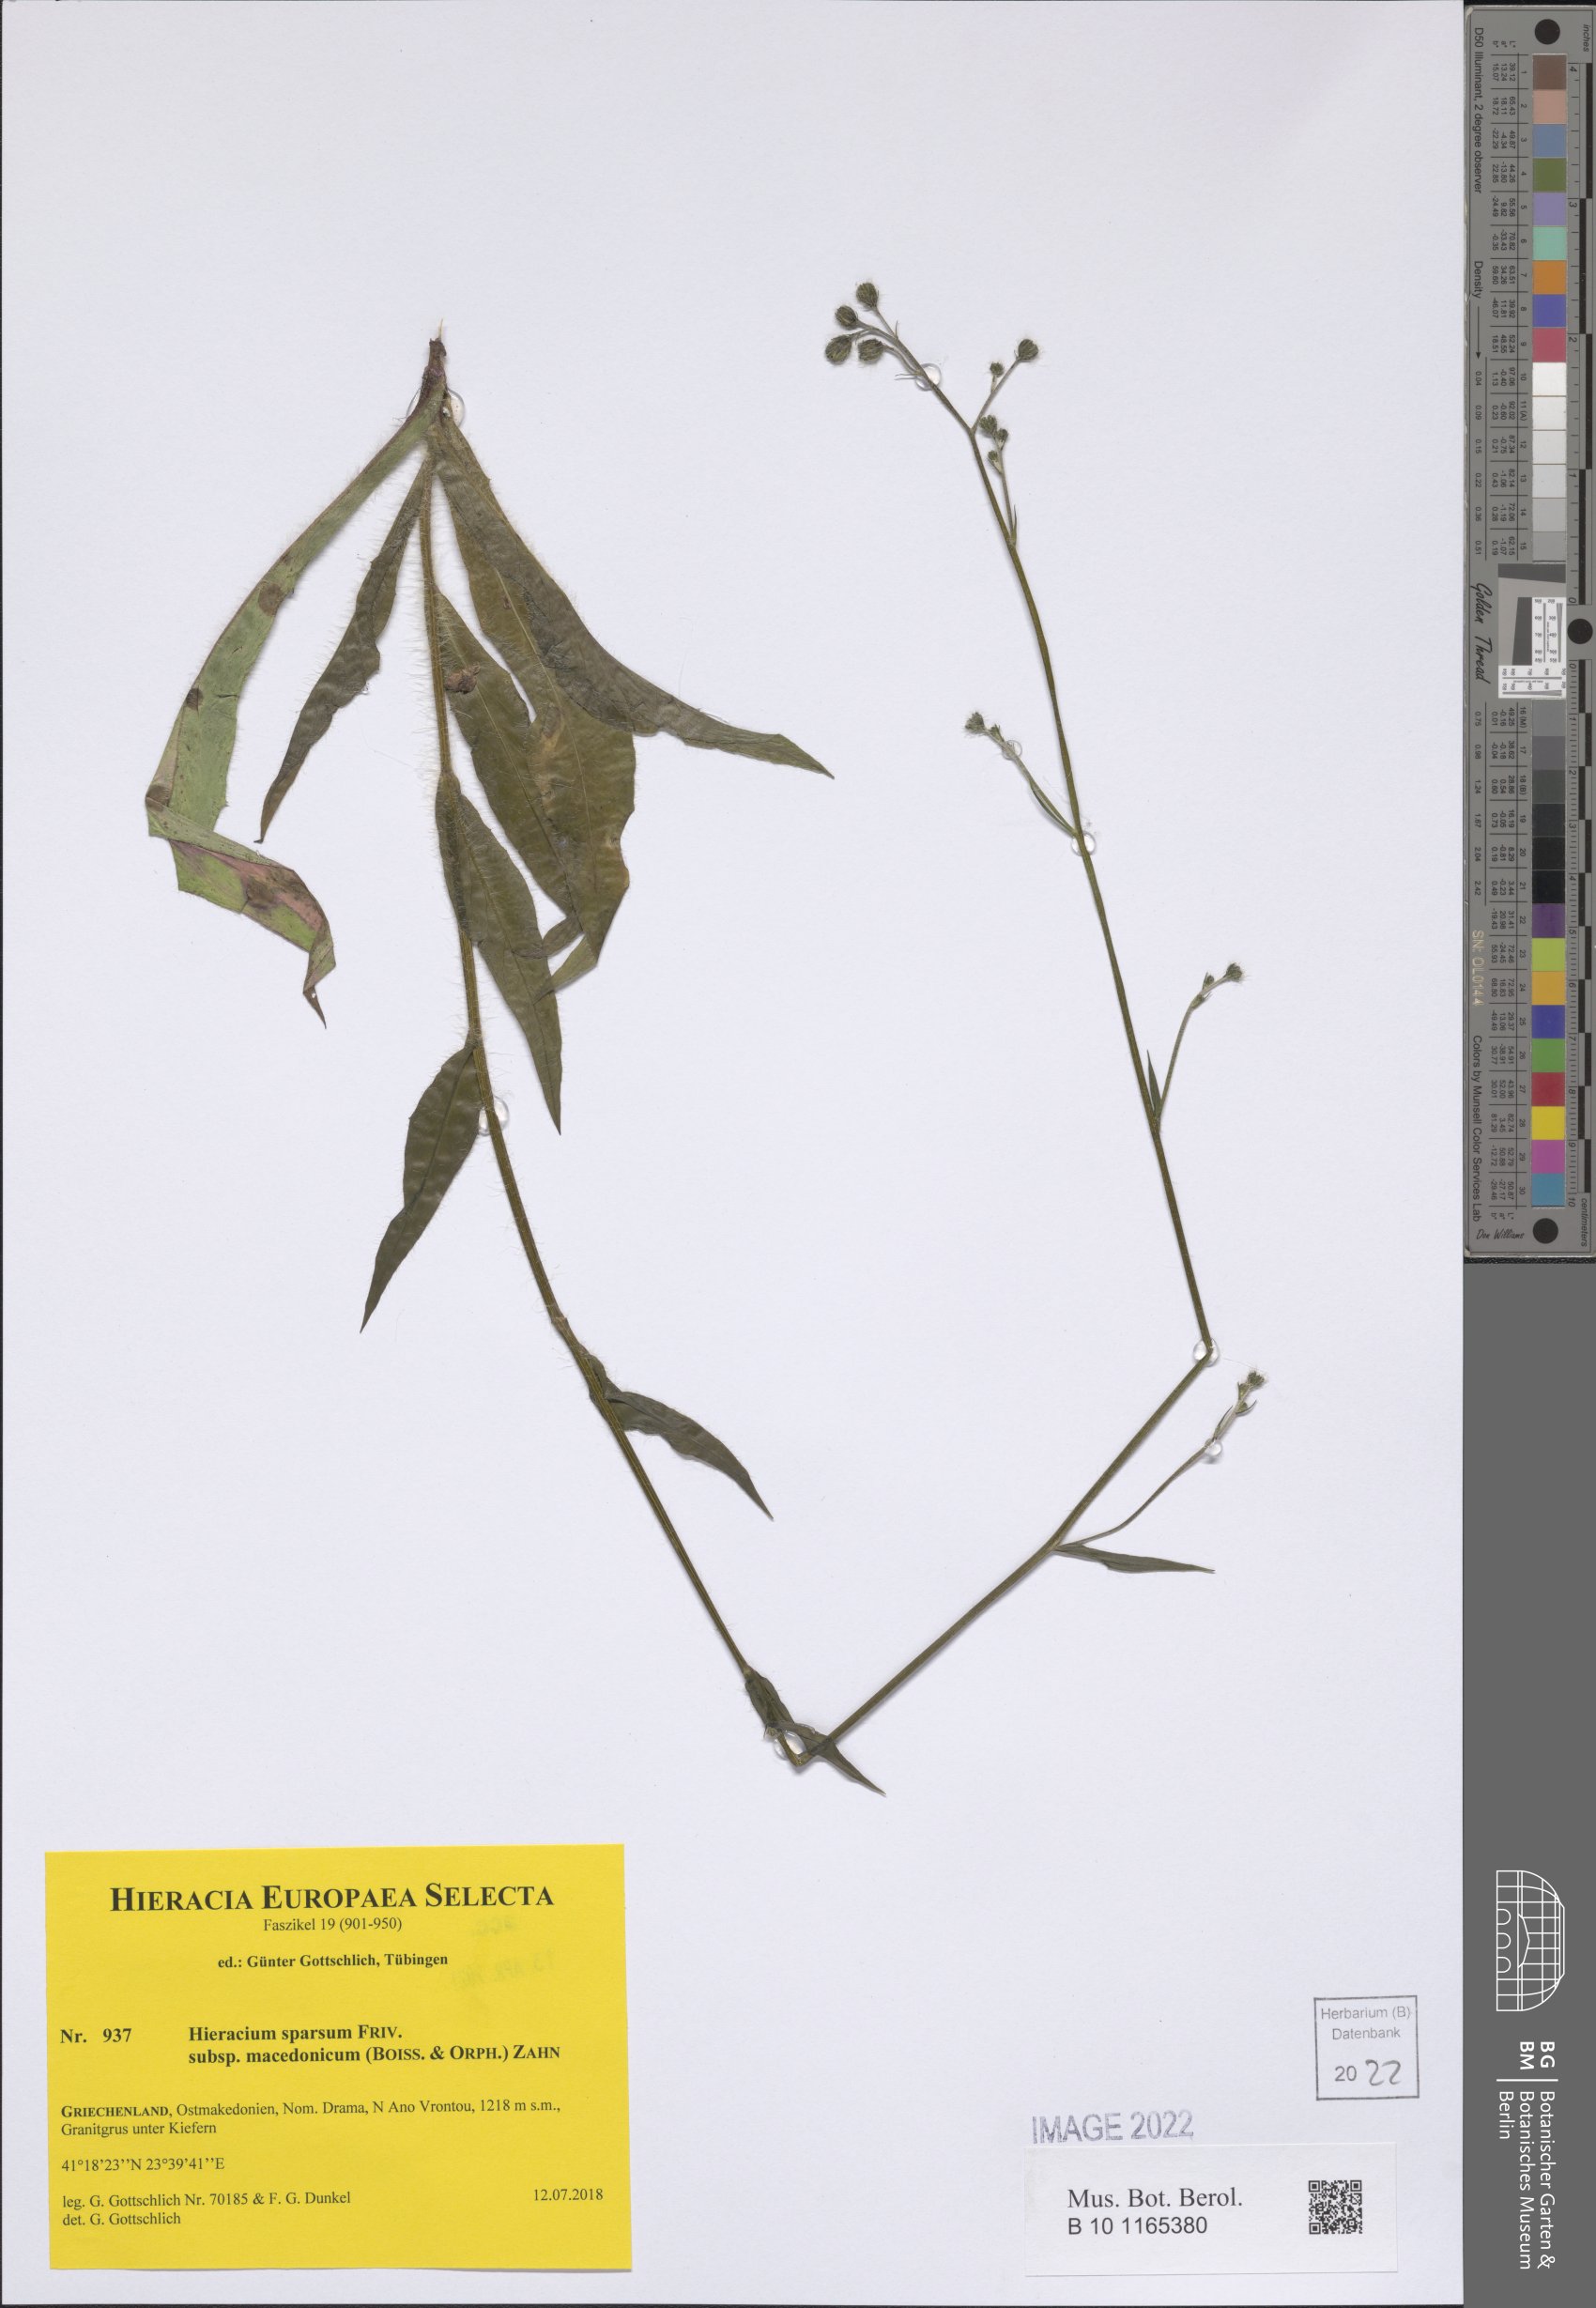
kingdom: Plantae
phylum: Tracheophyta
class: Magnoliopsida
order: Asterales
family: Asteraceae
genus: Hieracium
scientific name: Hieracium sparsum
